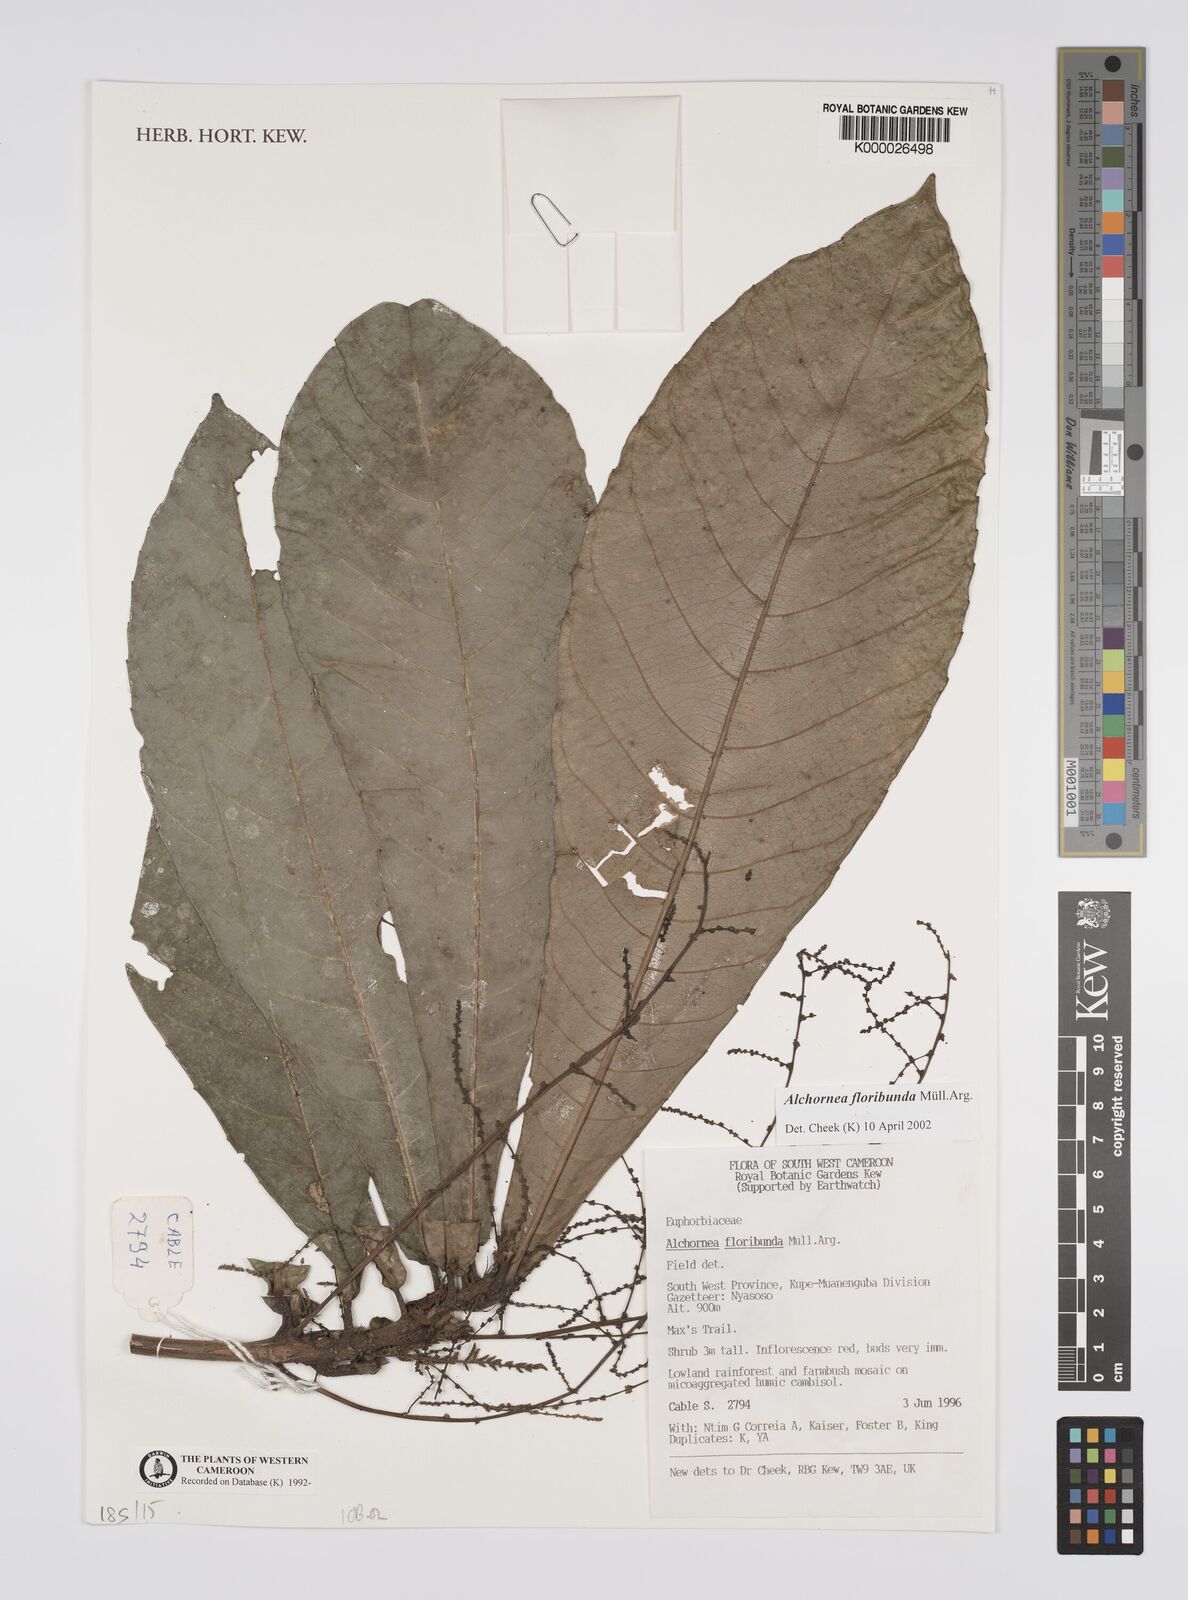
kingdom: Plantae
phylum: Tracheophyta
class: Magnoliopsida
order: Malpighiales
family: Euphorbiaceae
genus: Alchornea
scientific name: Alchornea
